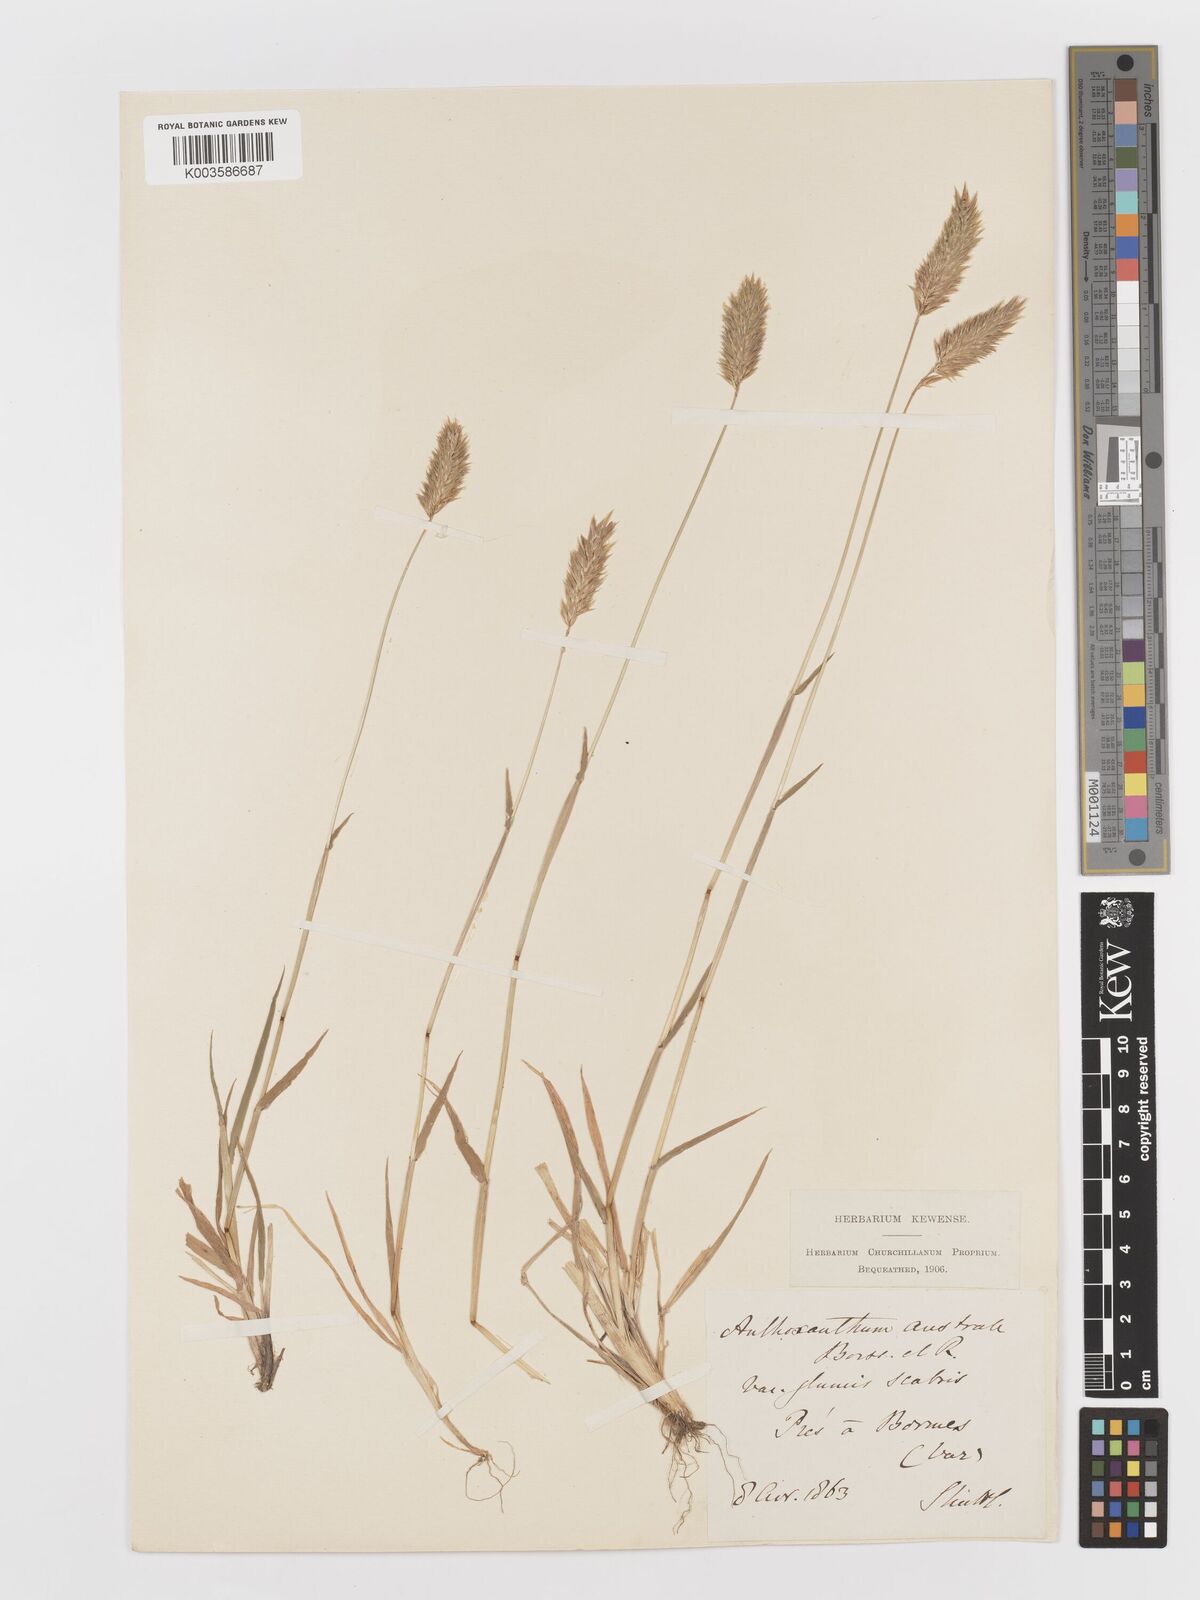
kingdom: Plantae
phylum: Tracheophyta
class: Liliopsida
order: Poales
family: Poaceae
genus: Anthoxanthum
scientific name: Anthoxanthum odoratum
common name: Sweet vernalgrass
